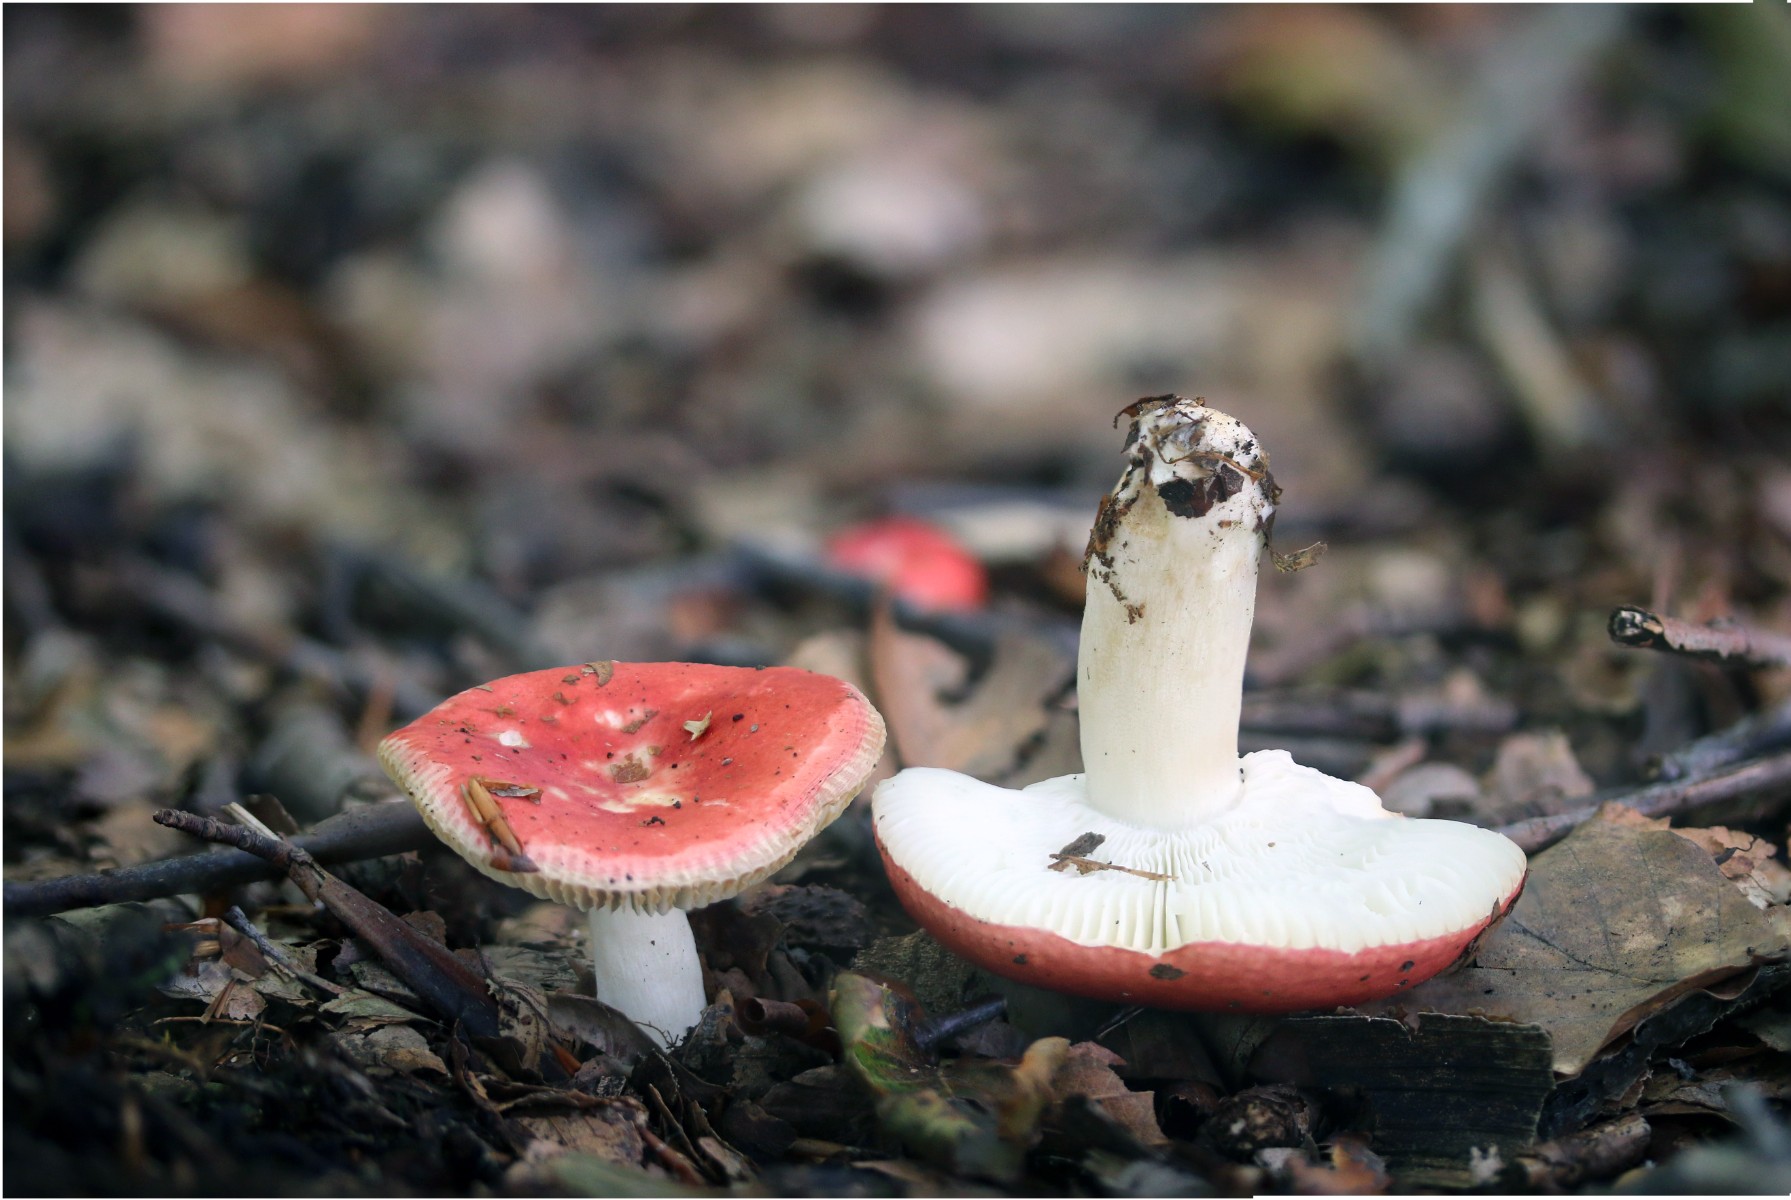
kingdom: Fungi
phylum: Basidiomycota
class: Agaricomycetes
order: Russulales
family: Russulaceae
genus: Russula
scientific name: Russula nobilis
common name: lille gift-skørhat
